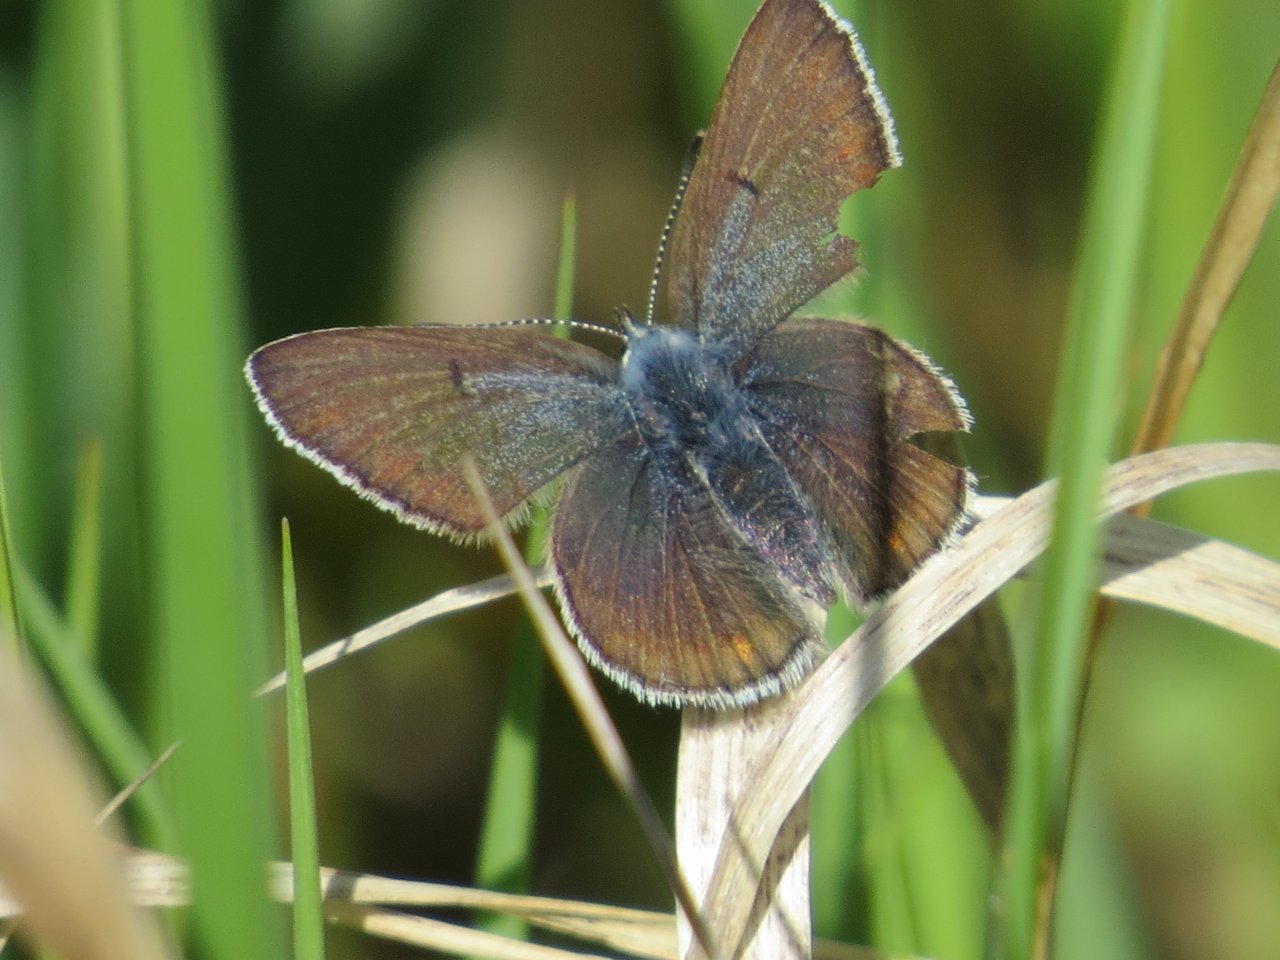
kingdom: Animalia
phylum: Arthropoda
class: Insecta
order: Lepidoptera
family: Lycaenidae
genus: Plebejus
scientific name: Plebejus saepiolus
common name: Greenish Blue
